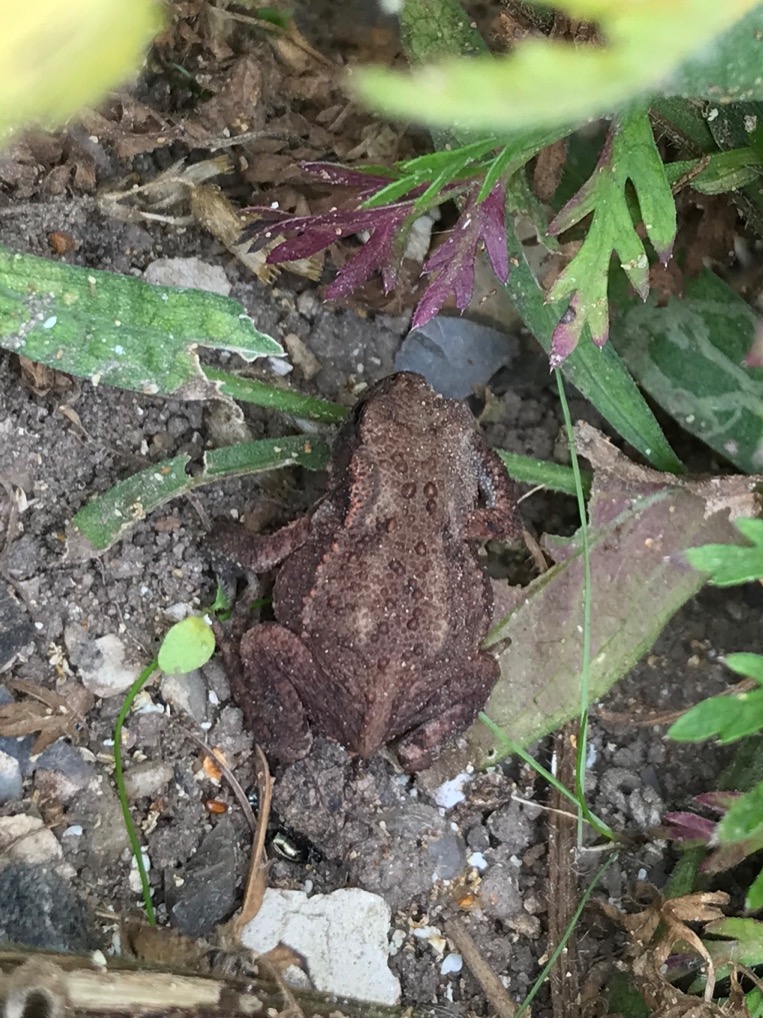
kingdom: Animalia
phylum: Chordata
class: Amphibia
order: Anura
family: Bufonidae
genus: Bufo
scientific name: Bufo bufo
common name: Skrubtudse
